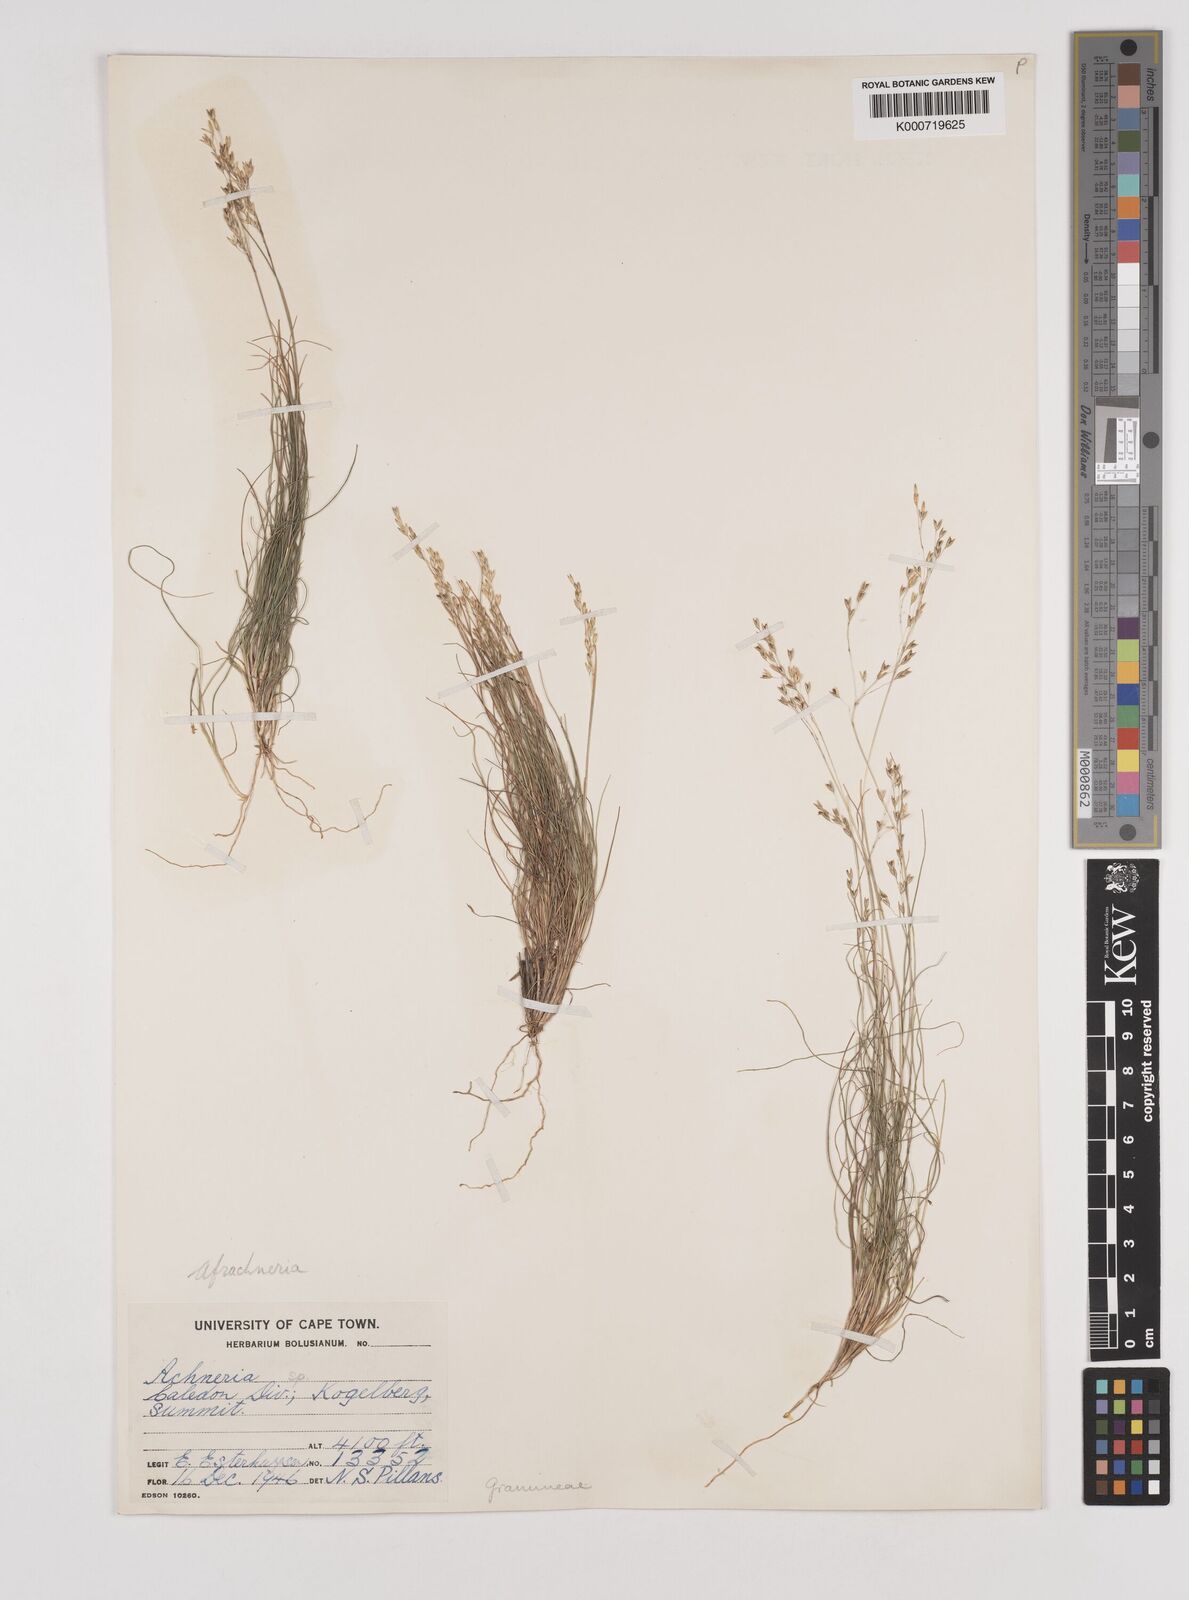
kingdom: Plantae
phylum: Tracheophyta
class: Liliopsida
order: Poales
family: Poaceae
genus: Pentameris
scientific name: Pentameris malouinensis
